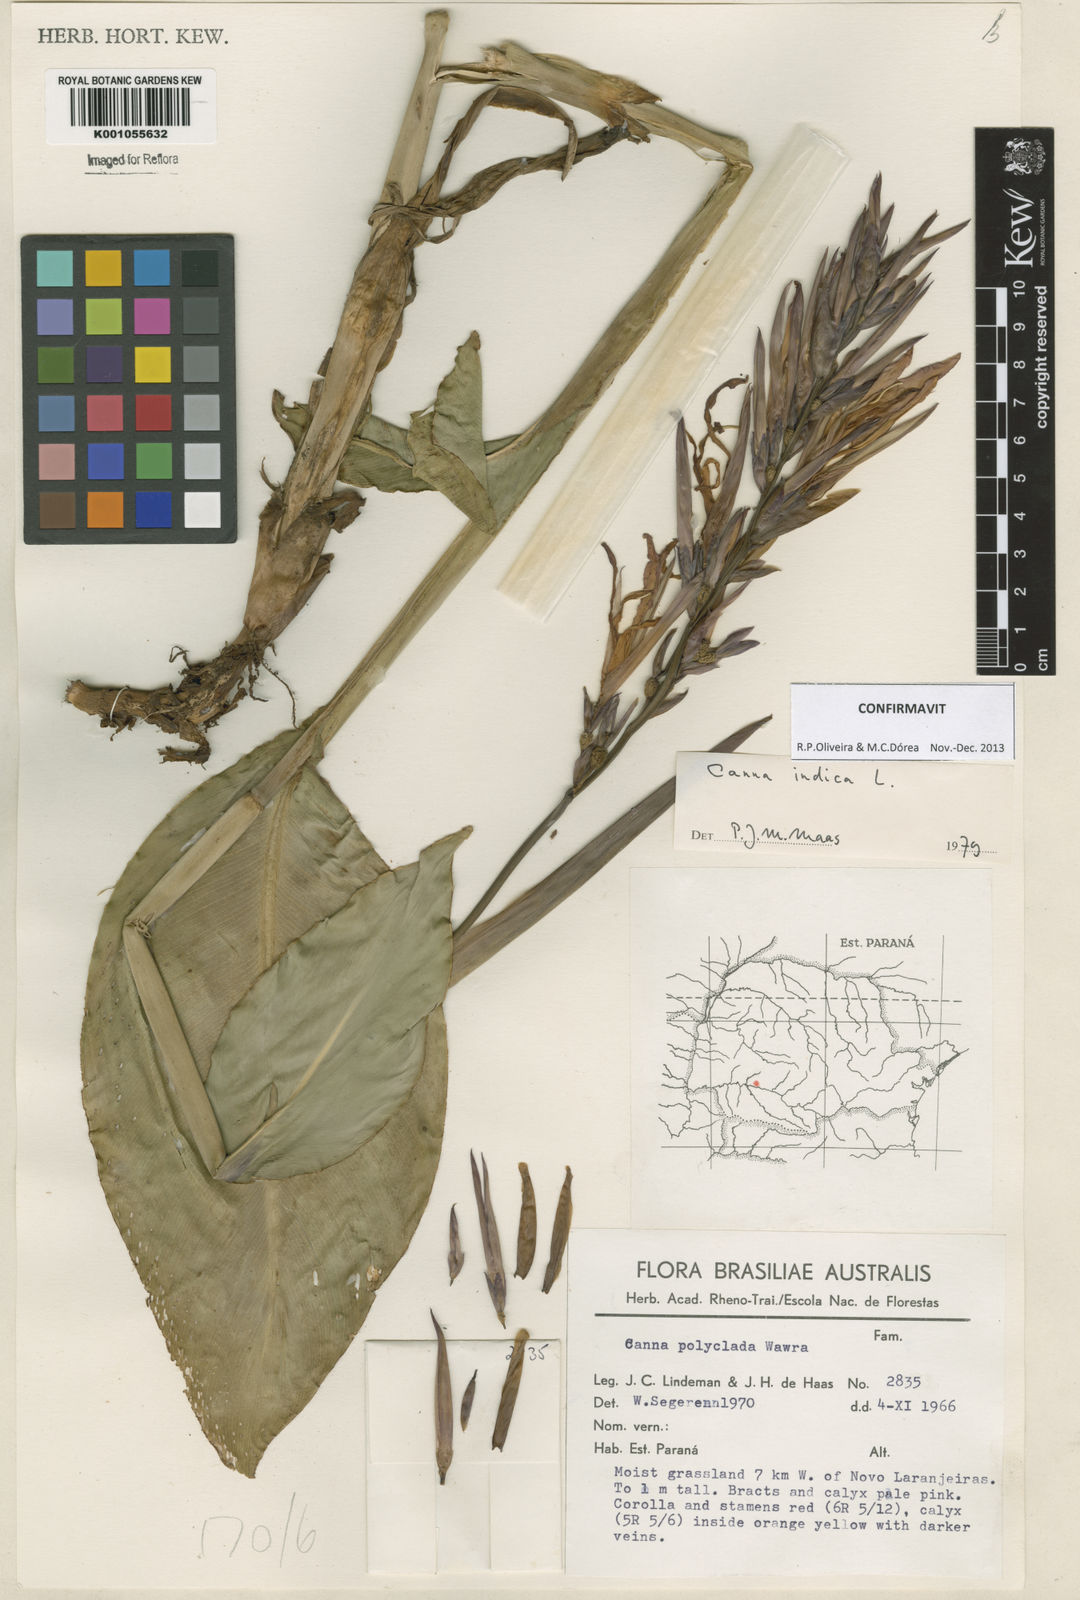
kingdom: Plantae
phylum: Tracheophyta
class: Liliopsida
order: Zingiberales
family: Cannaceae
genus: Canna
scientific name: Canna indica
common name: Indian shot
